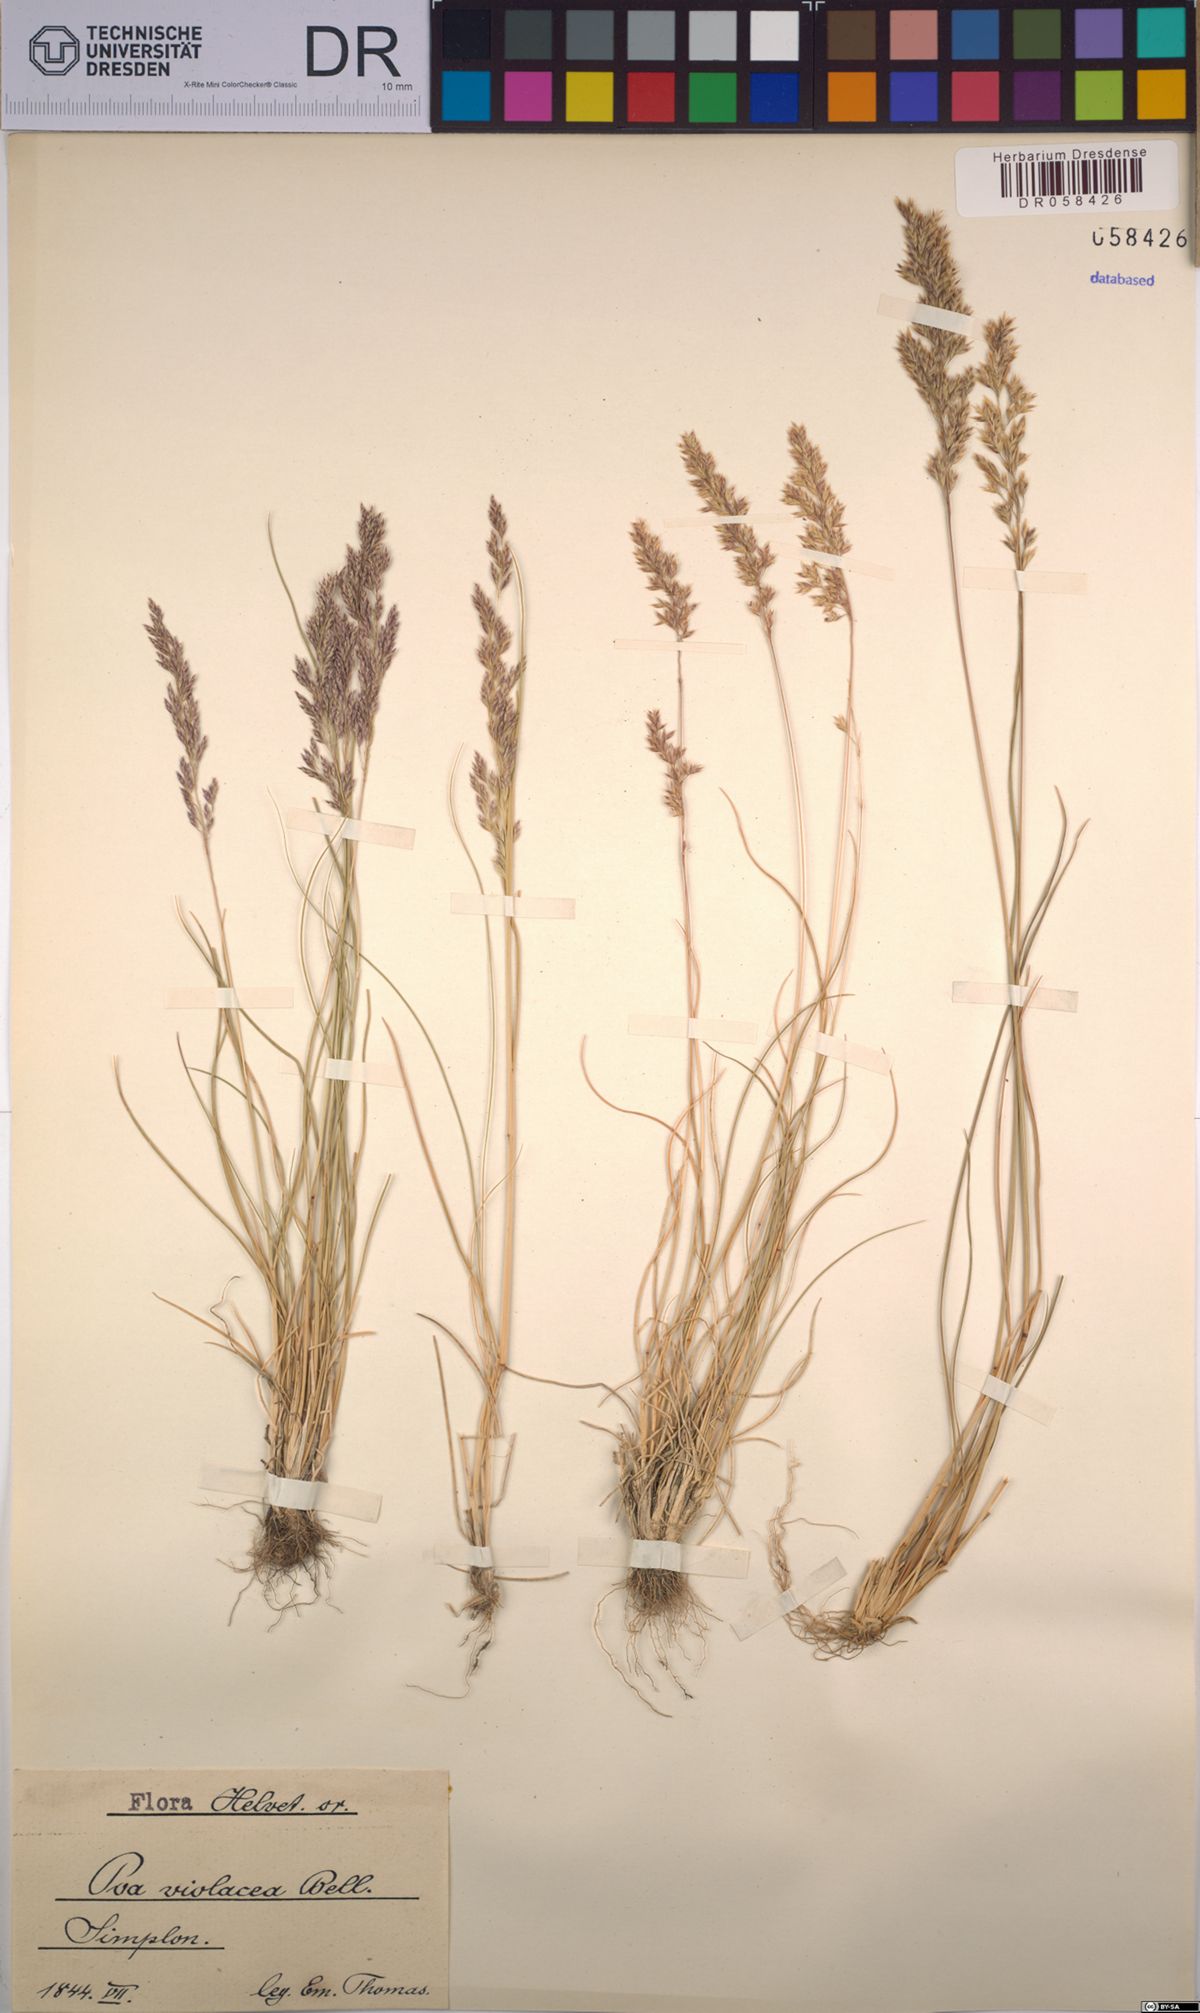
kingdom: Plantae
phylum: Tracheophyta
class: Liliopsida
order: Poales
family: Poaceae
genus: Bellardiochloa
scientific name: Bellardiochloa variegata
